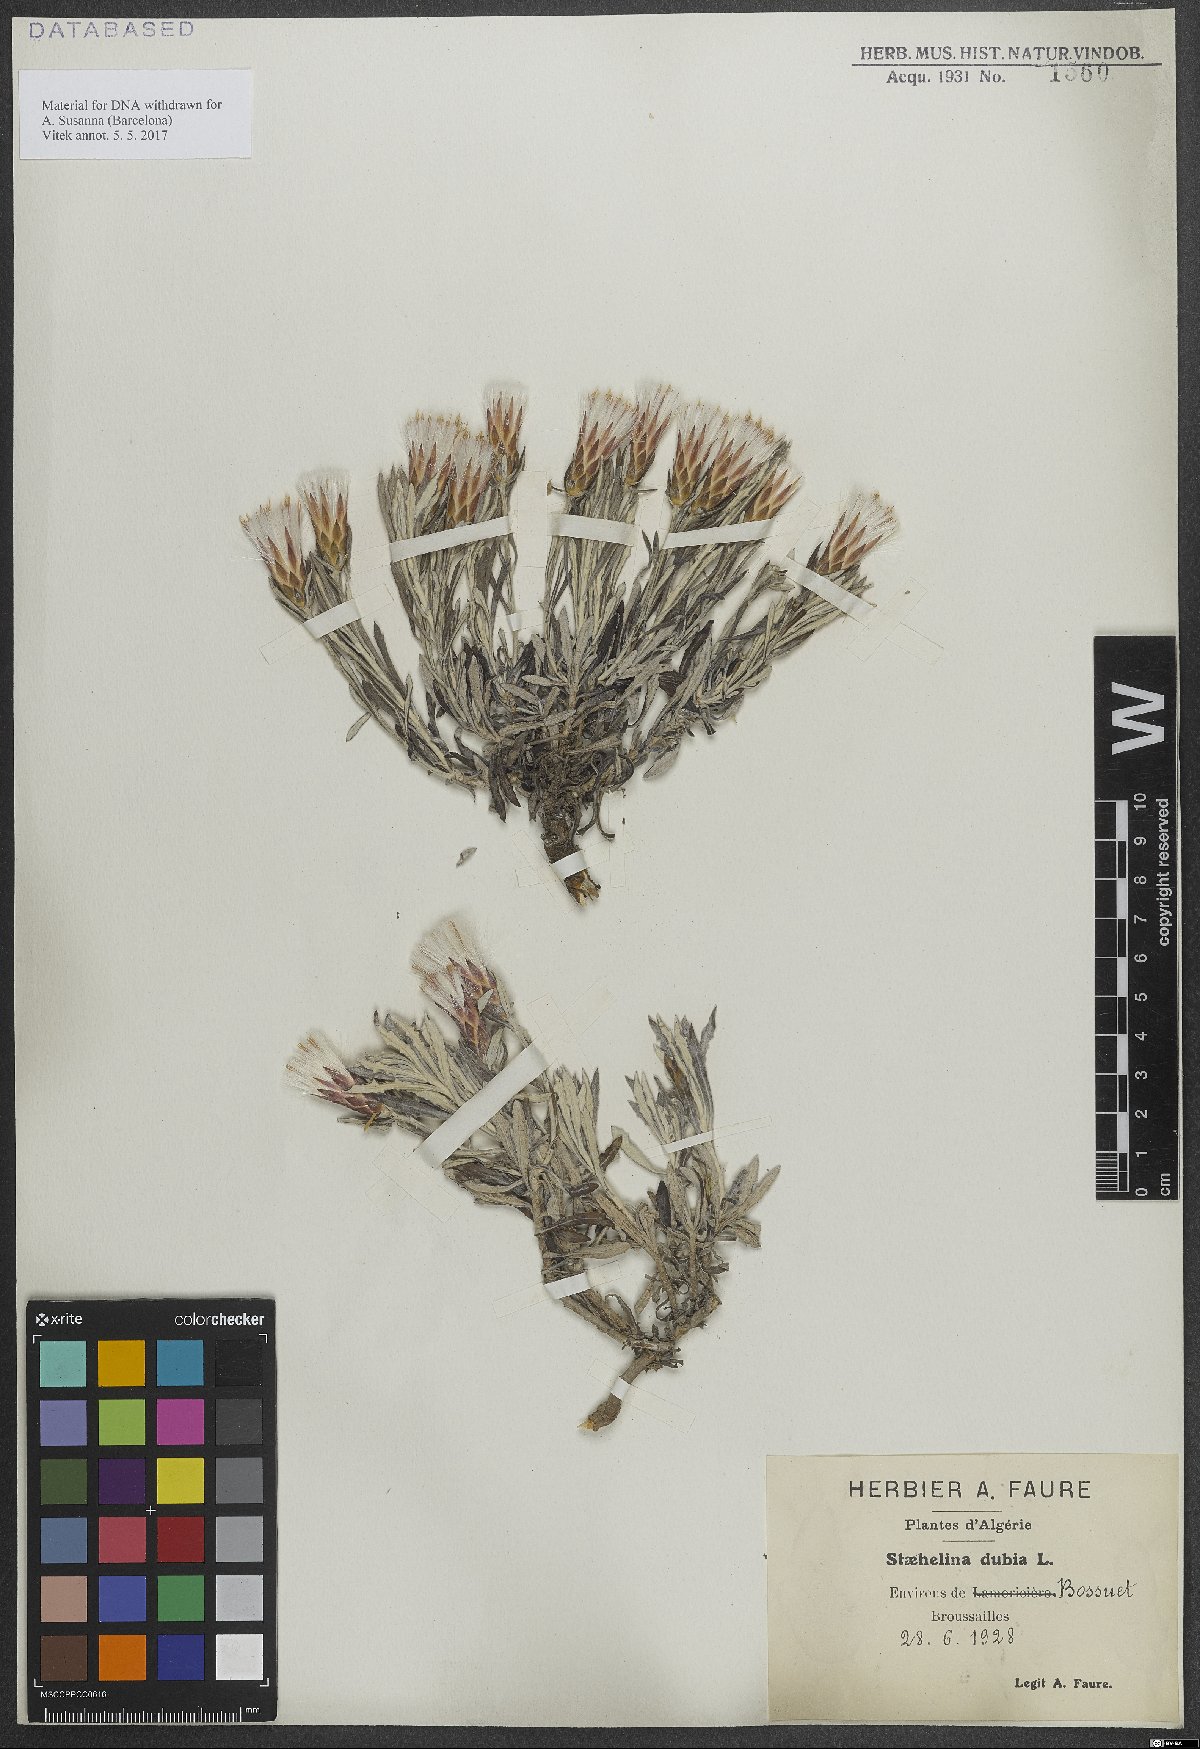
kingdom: Plantae
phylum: Tracheophyta
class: Magnoliopsida
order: Asterales
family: Asteraceae
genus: Staehelina
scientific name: Staehelina dubia
